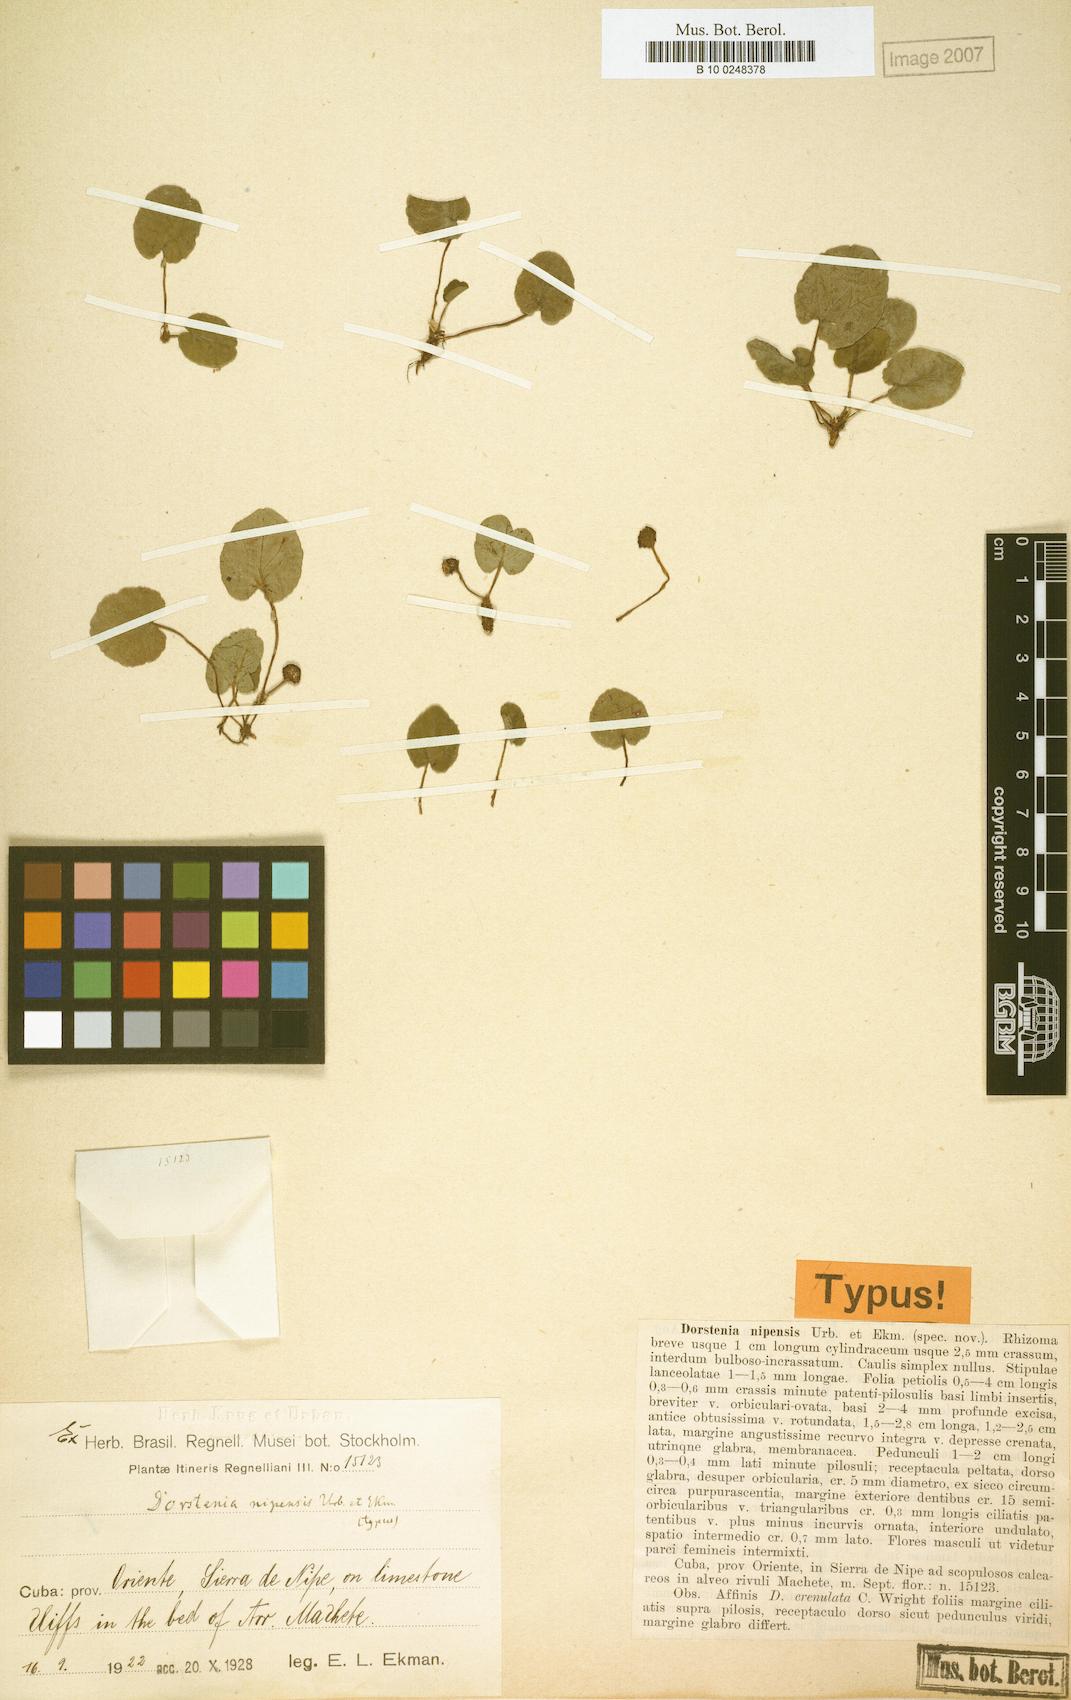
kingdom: Plantae
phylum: Tracheophyta
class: Magnoliopsida
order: Rosales
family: Moraceae
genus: Dorstenia
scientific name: Dorstenia erythrandra
